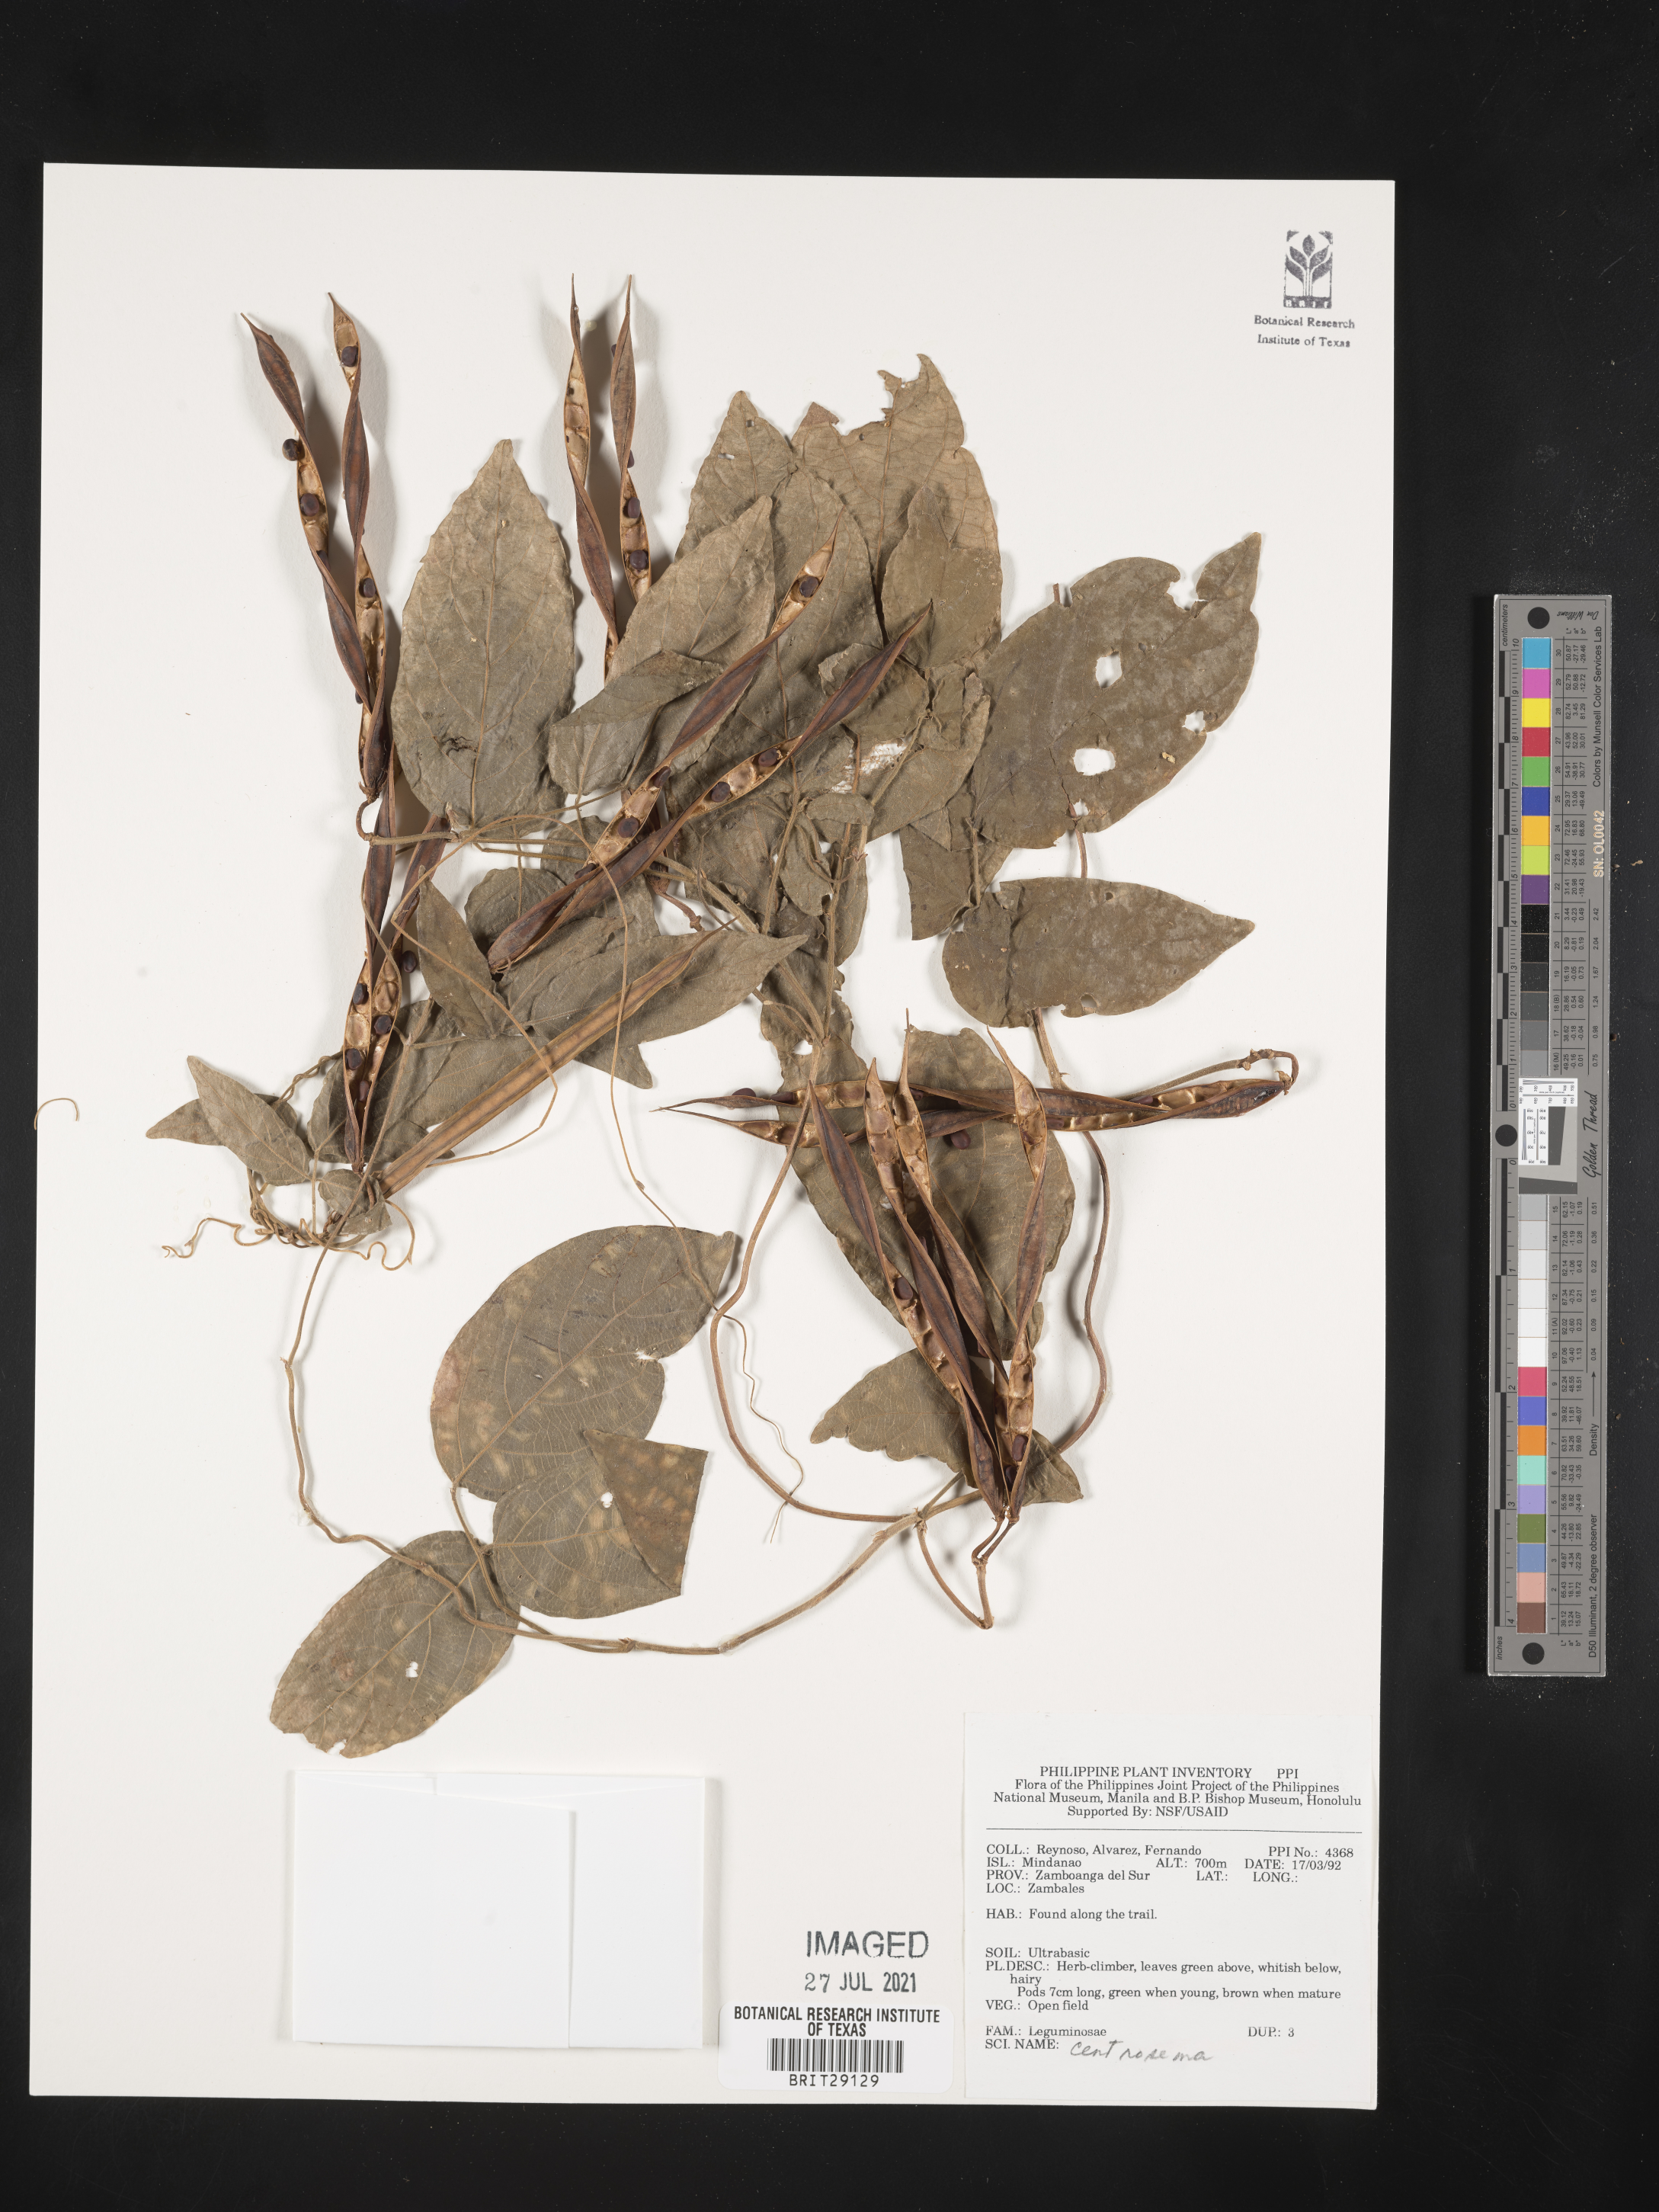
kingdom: Plantae
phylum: Tracheophyta
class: Magnoliopsida
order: Fabales
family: Fabaceae
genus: Centrosema
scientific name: Centrosema
